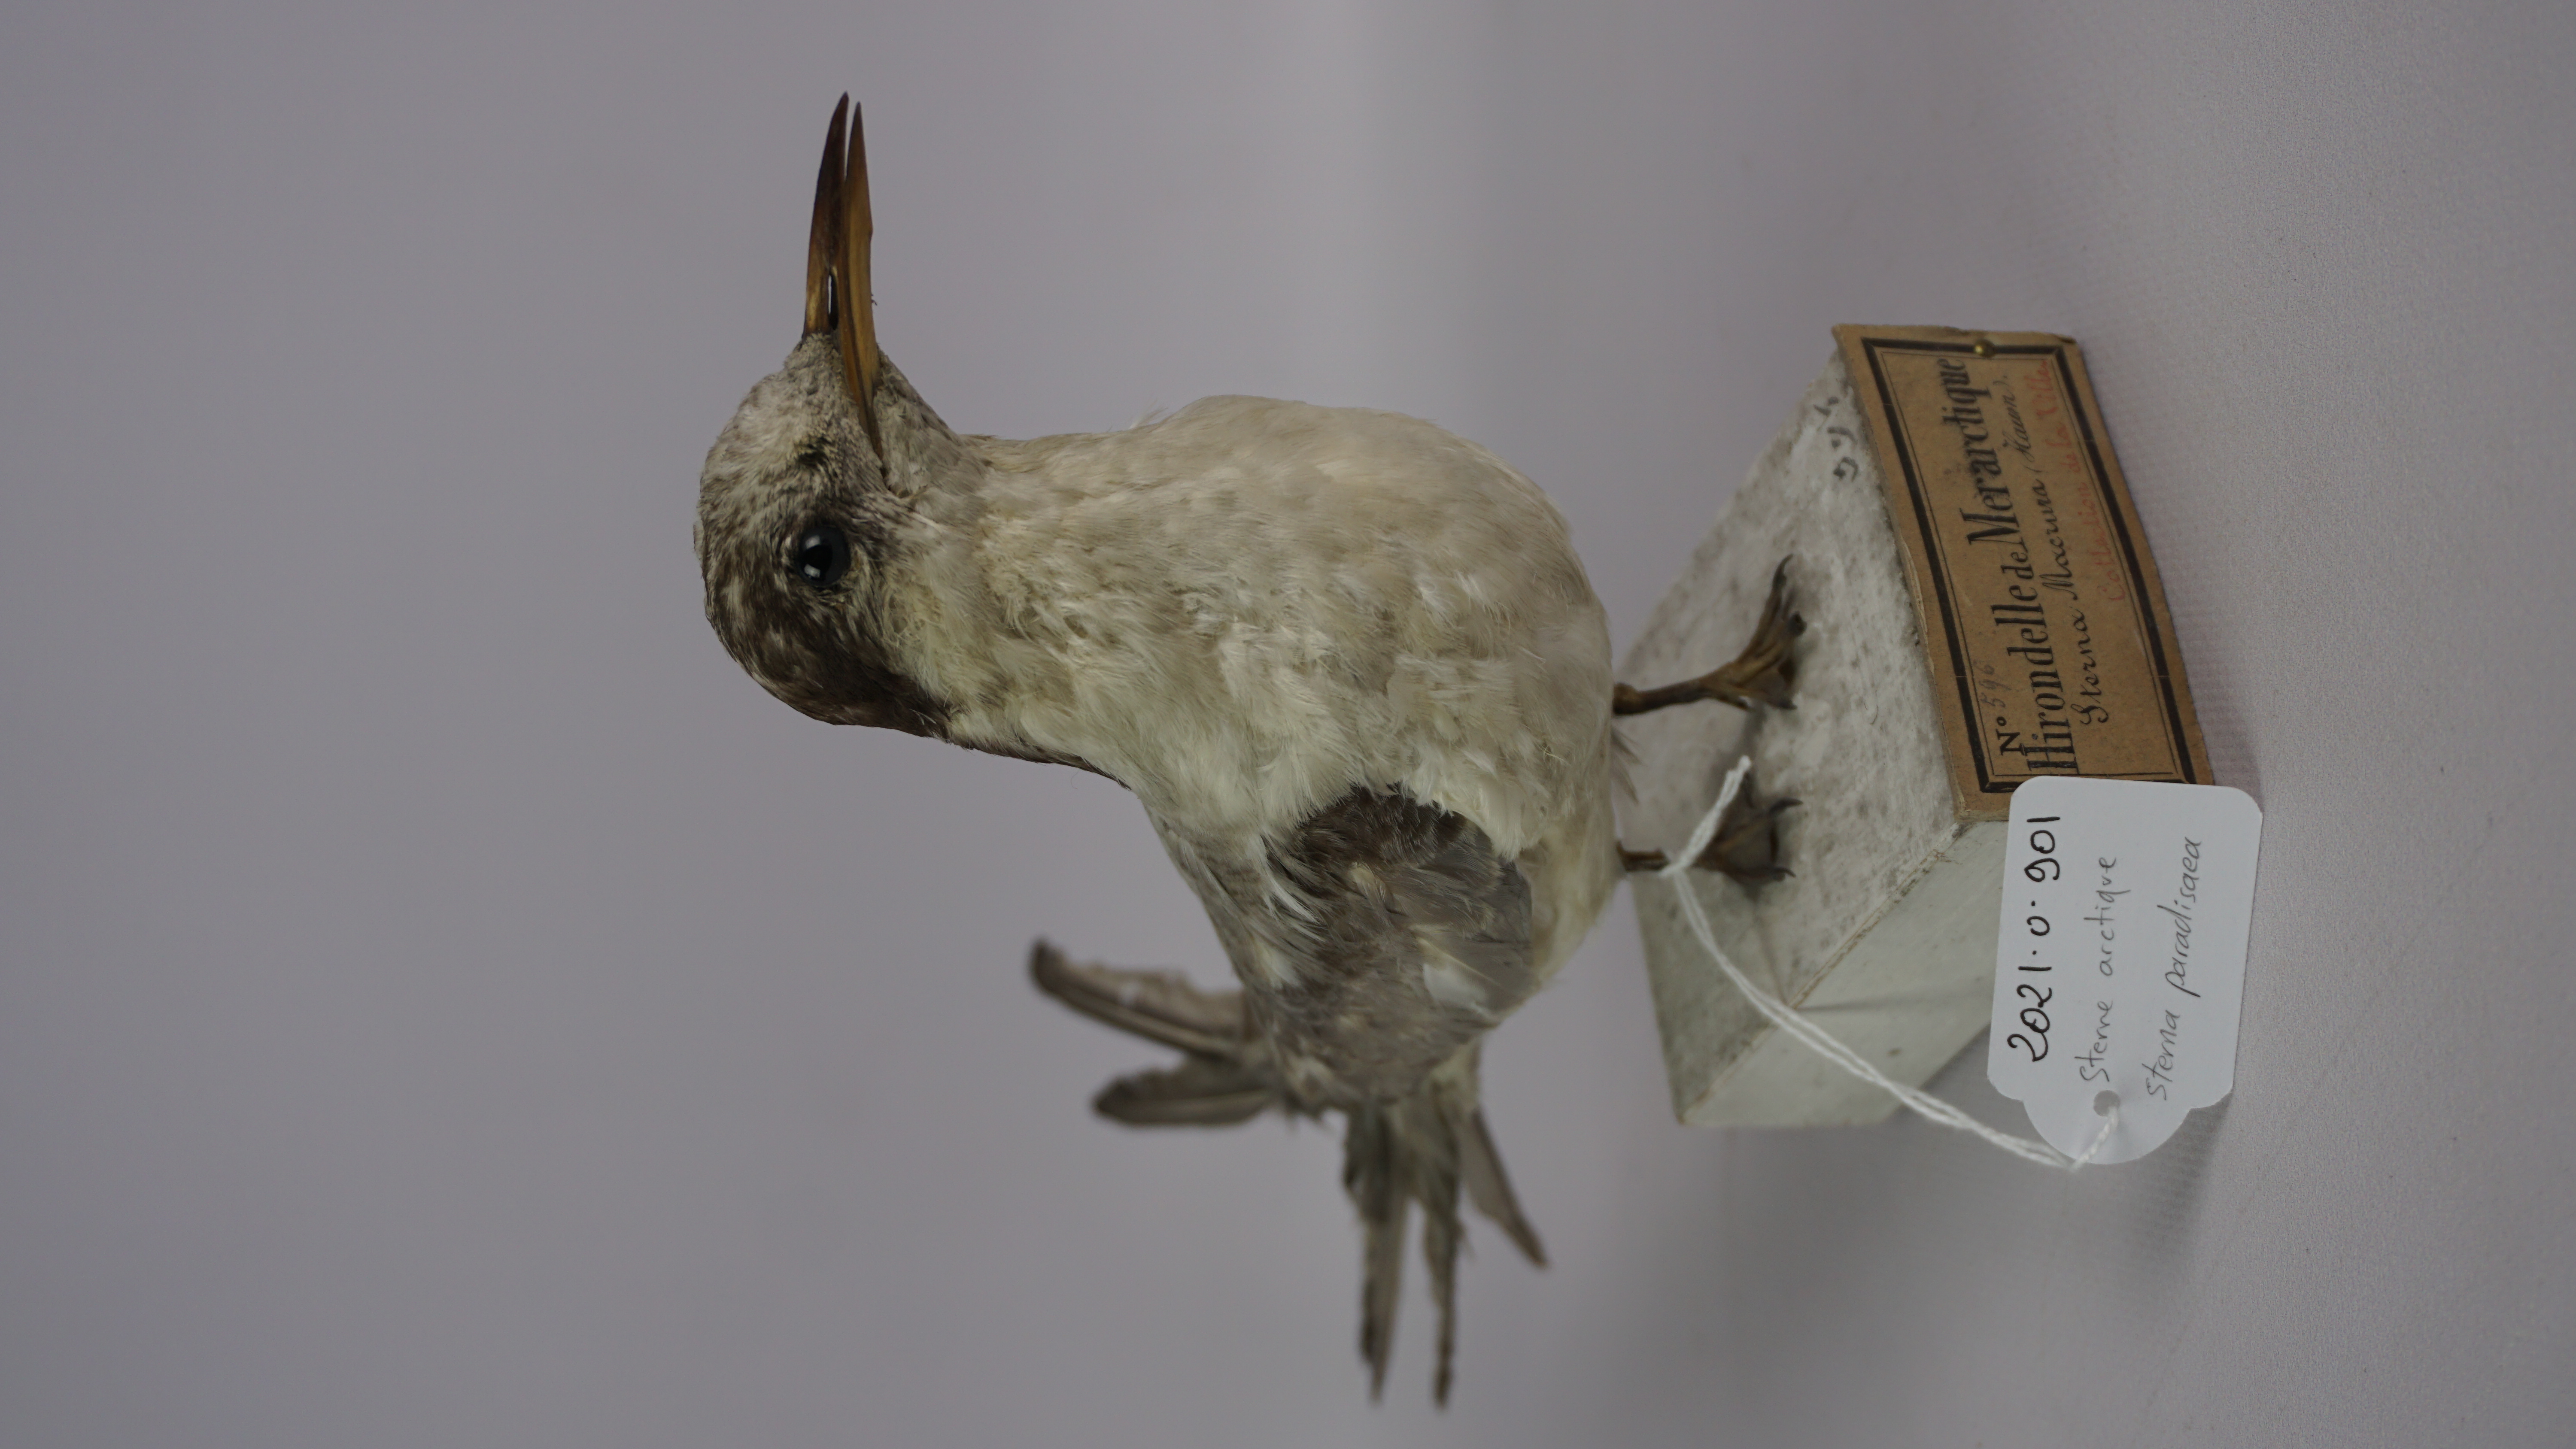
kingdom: Animalia
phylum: Chordata
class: Aves
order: Charadriiformes
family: Laridae
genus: Sterna
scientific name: Sterna paradisaea
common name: Arctic tern
